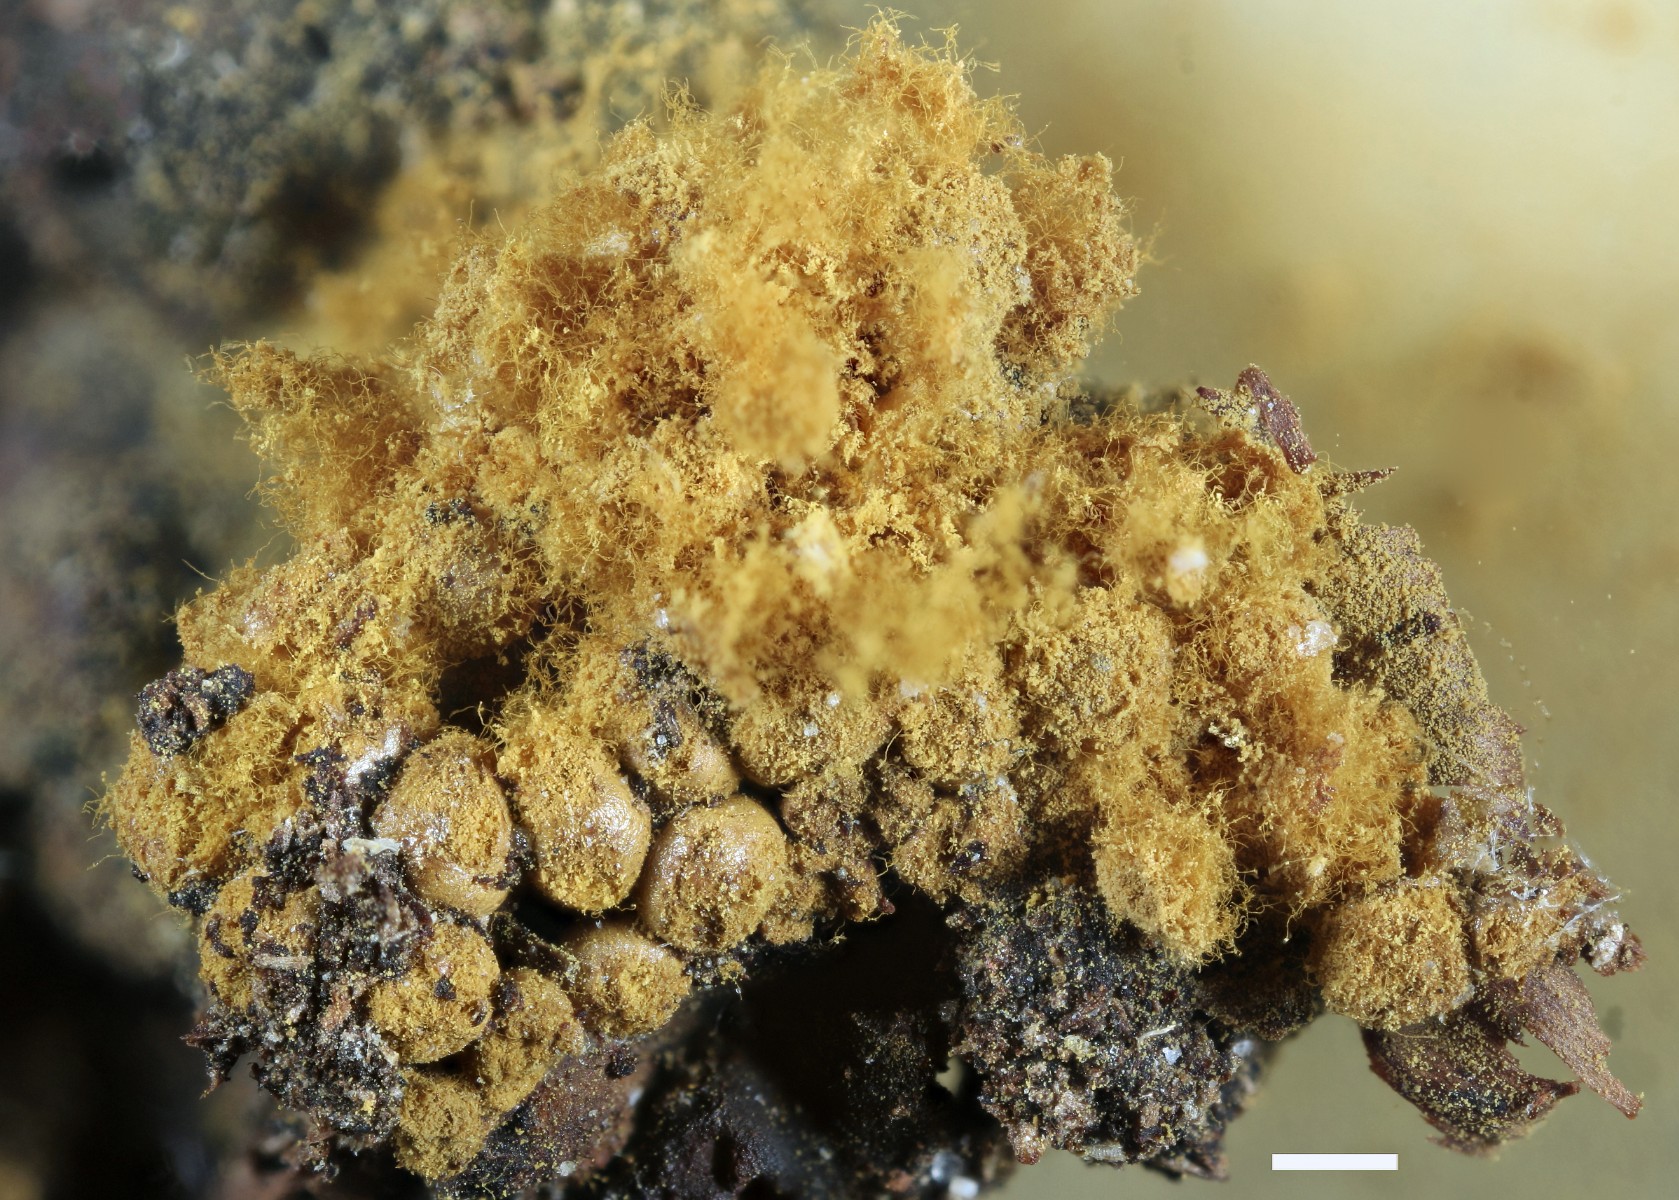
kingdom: Protozoa
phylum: Mycetozoa
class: Myxomycetes
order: Trichiales
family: Trichiaceae
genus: Oligonema
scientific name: Oligonema persimile
